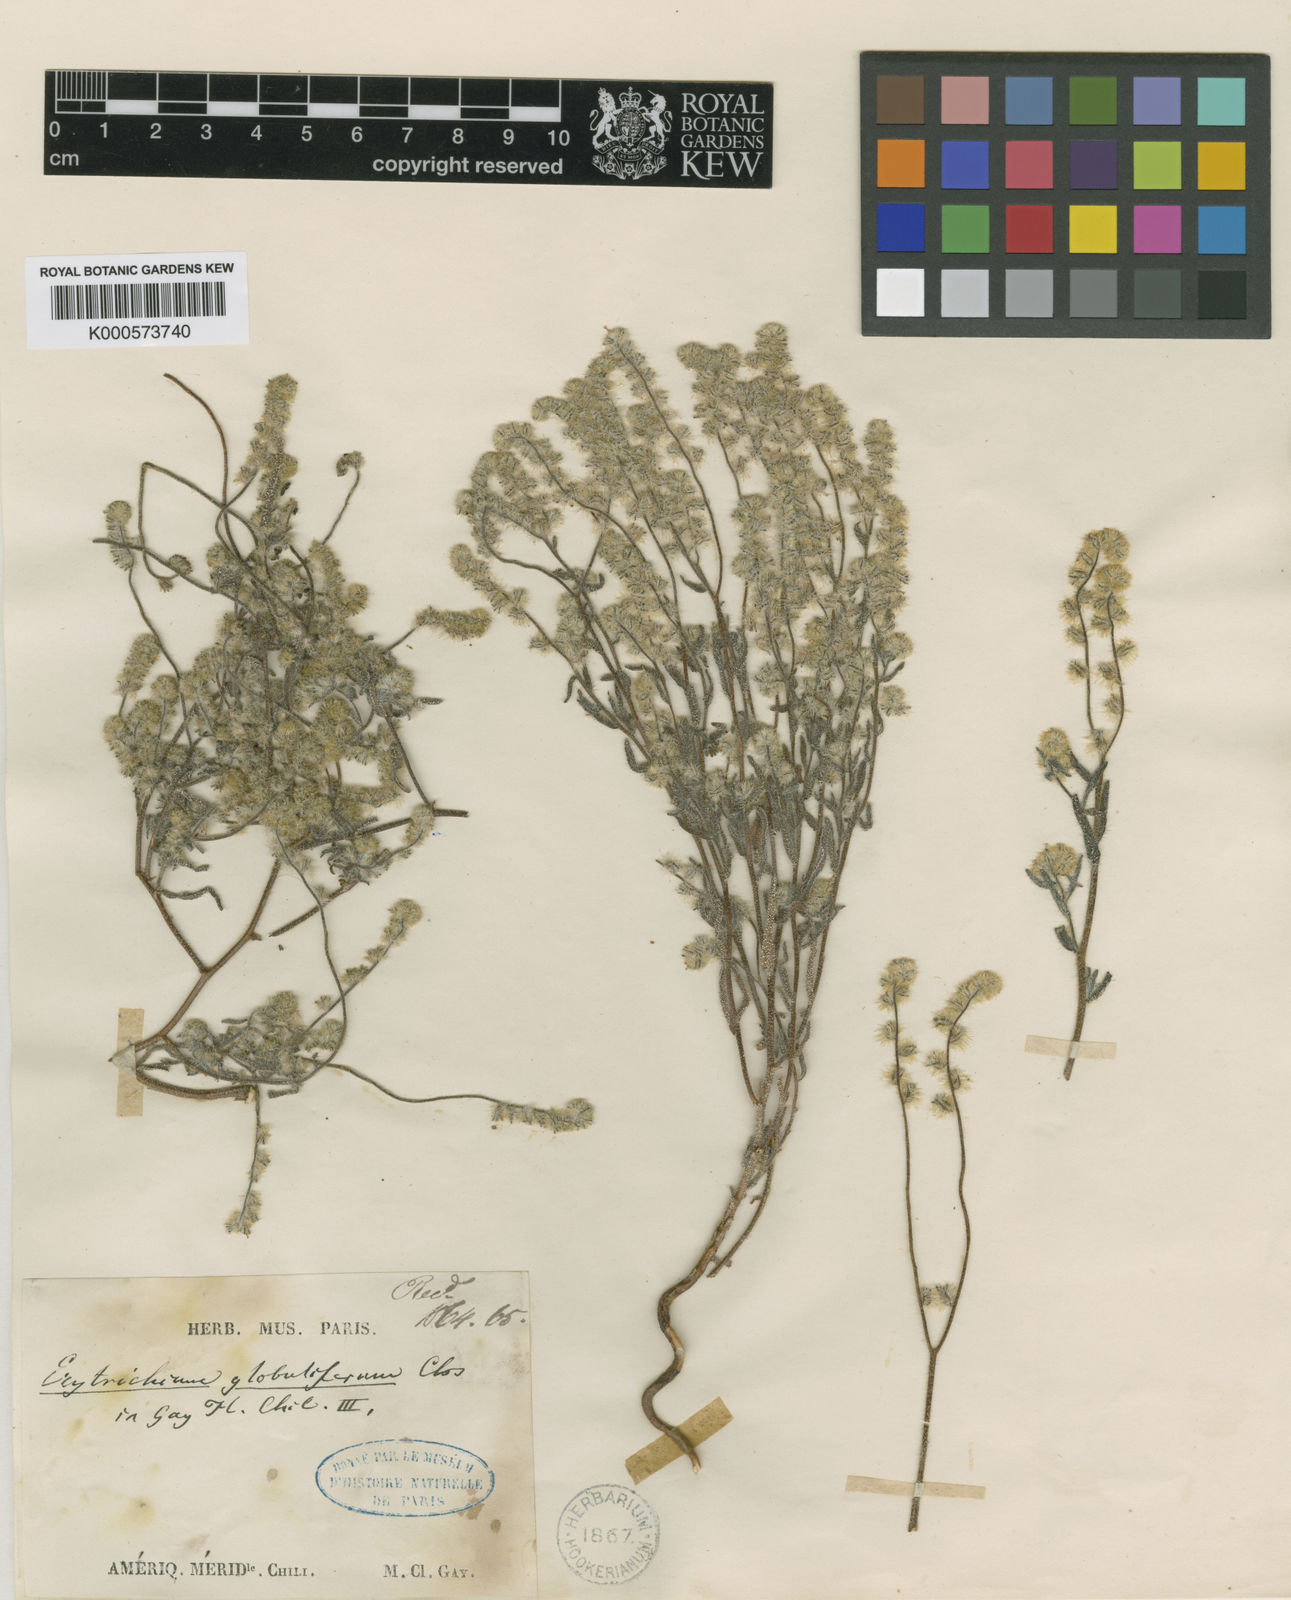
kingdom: Plantae
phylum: Tracheophyta
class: Magnoliopsida
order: Boraginales
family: Boraginaceae
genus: Cryptantha
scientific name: Cryptantha globulifera
